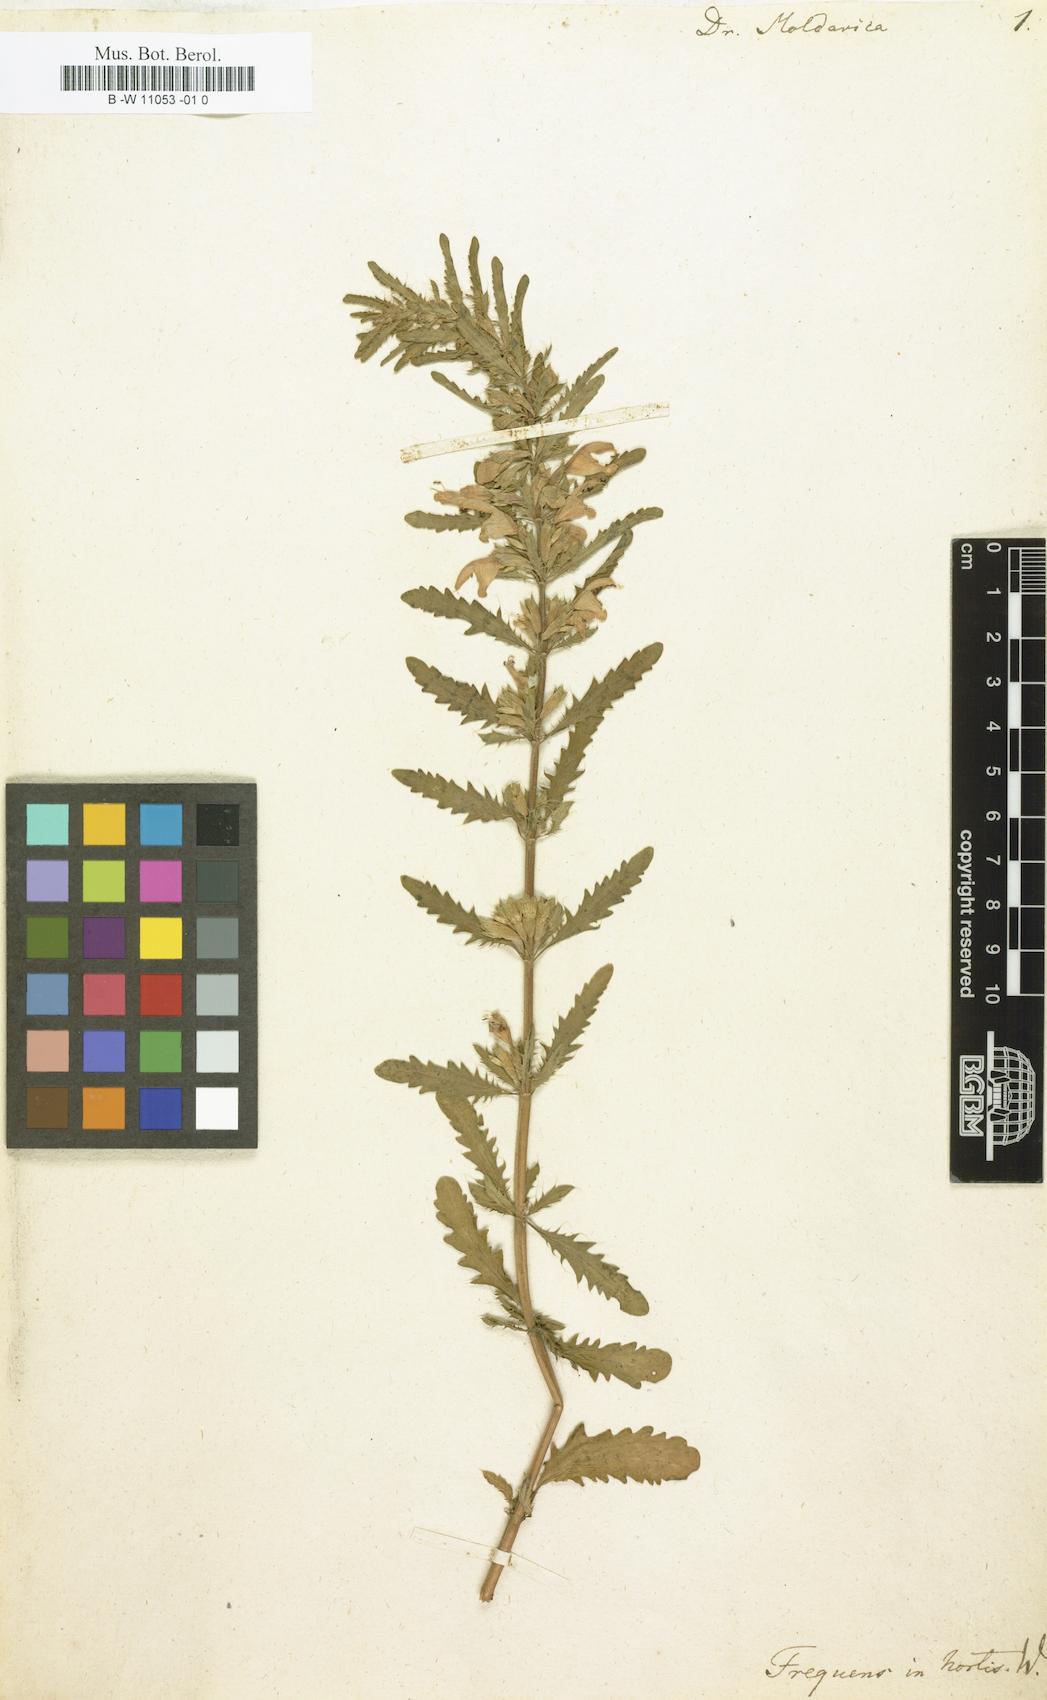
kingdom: Plantae
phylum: Tracheophyta
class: Magnoliopsida
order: Lamiales
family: Lamiaceae
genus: Dracocephalum
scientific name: Dracocephalum moldavica
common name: Moldavian dragonhead
